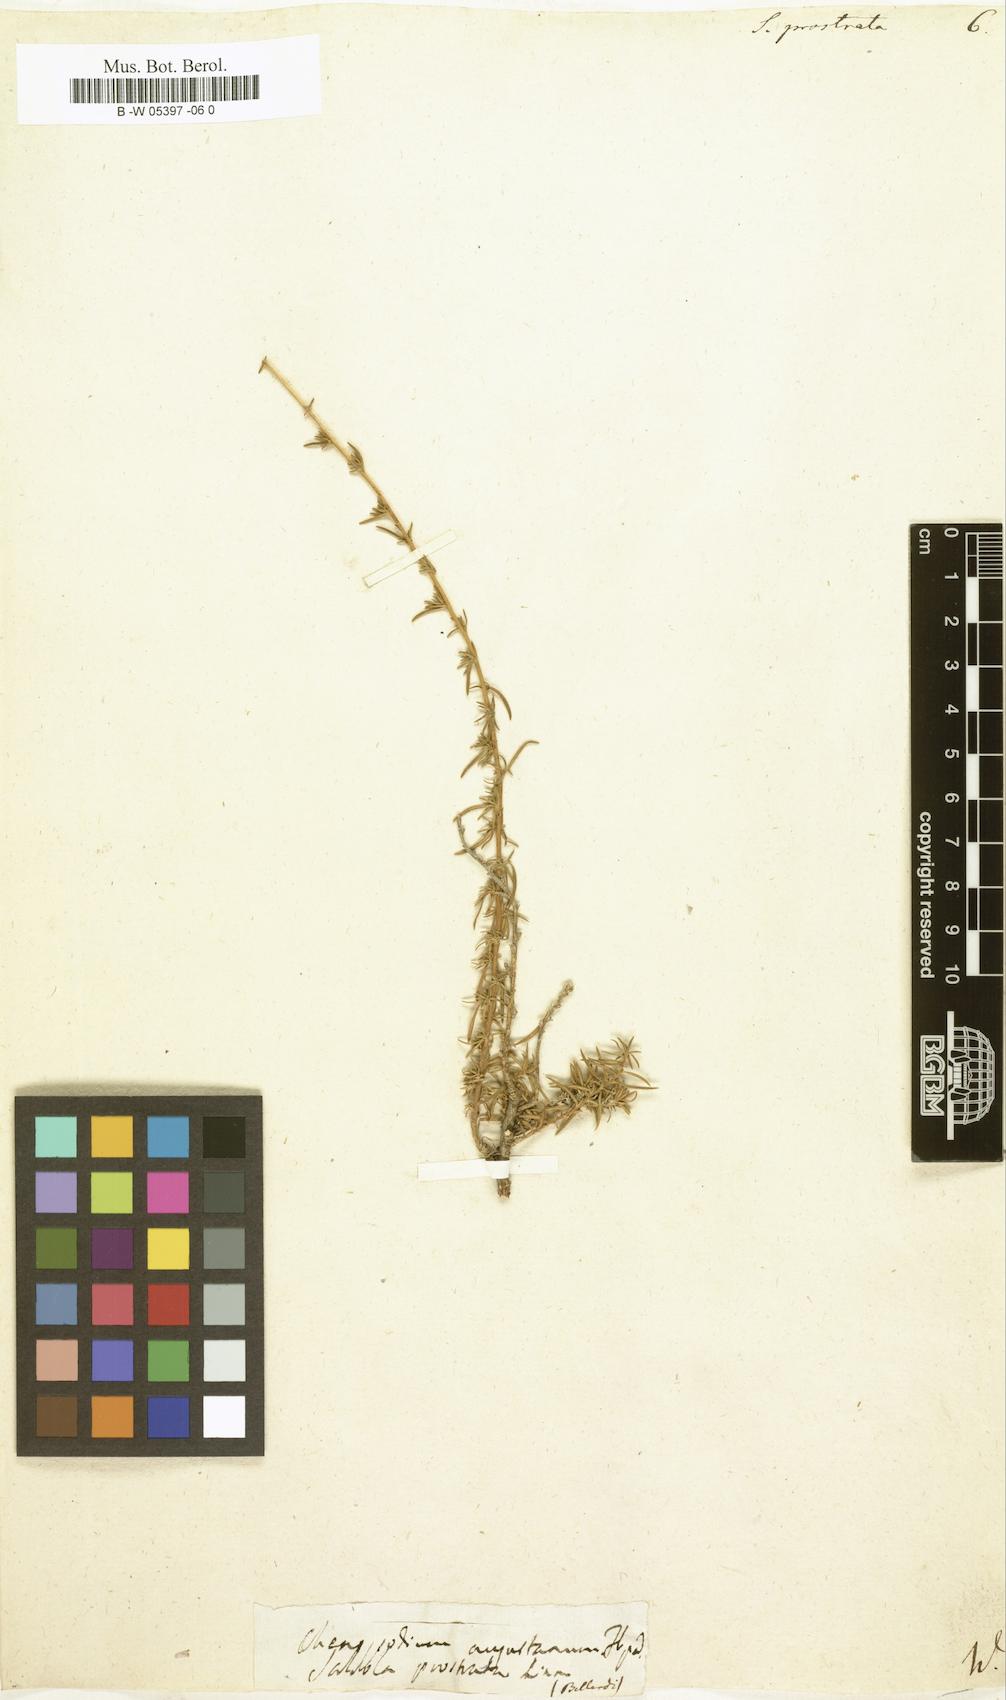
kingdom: Plantae
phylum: Tracheophyta
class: Magnoliopsida
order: Caryophyllales
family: Amaranthaceae
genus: Bassia
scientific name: Bassia prostrata
